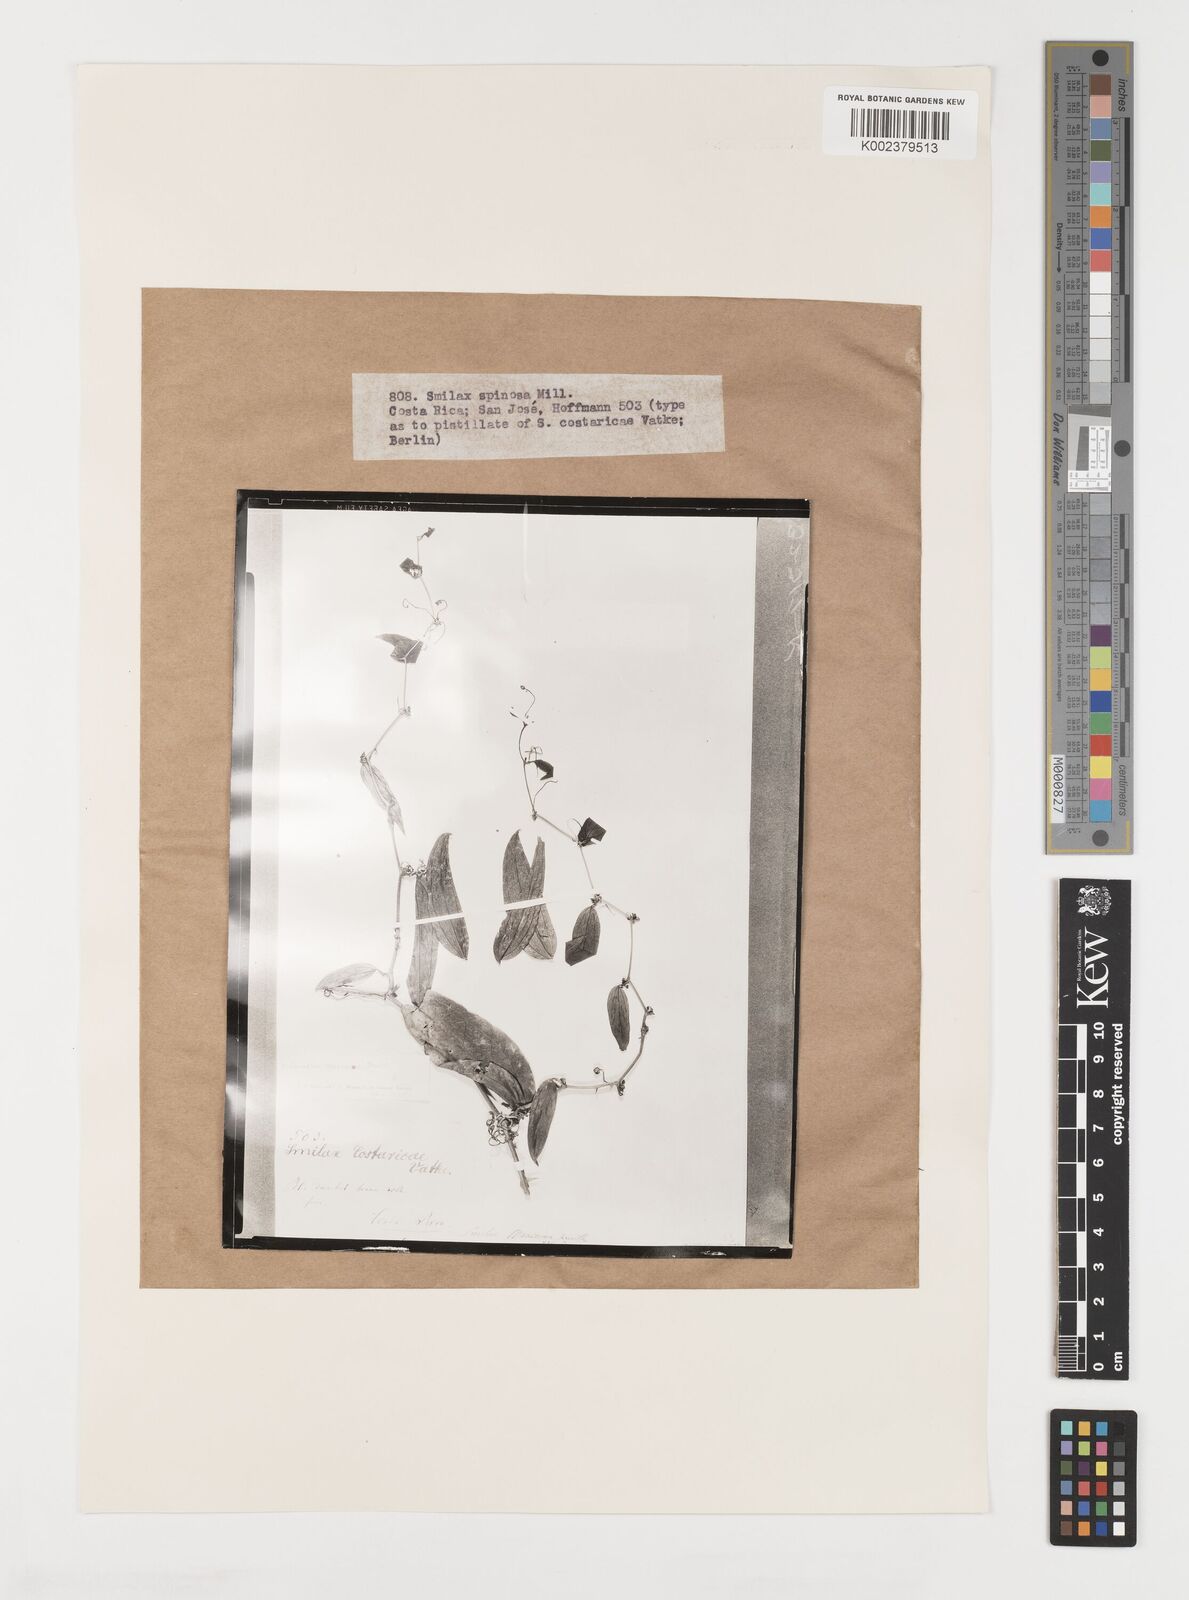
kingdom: Plantae
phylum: Tracheophyta
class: Liliopsida
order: Liliales
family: Smilacaceae
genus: Smilax
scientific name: Smilax spinosa
